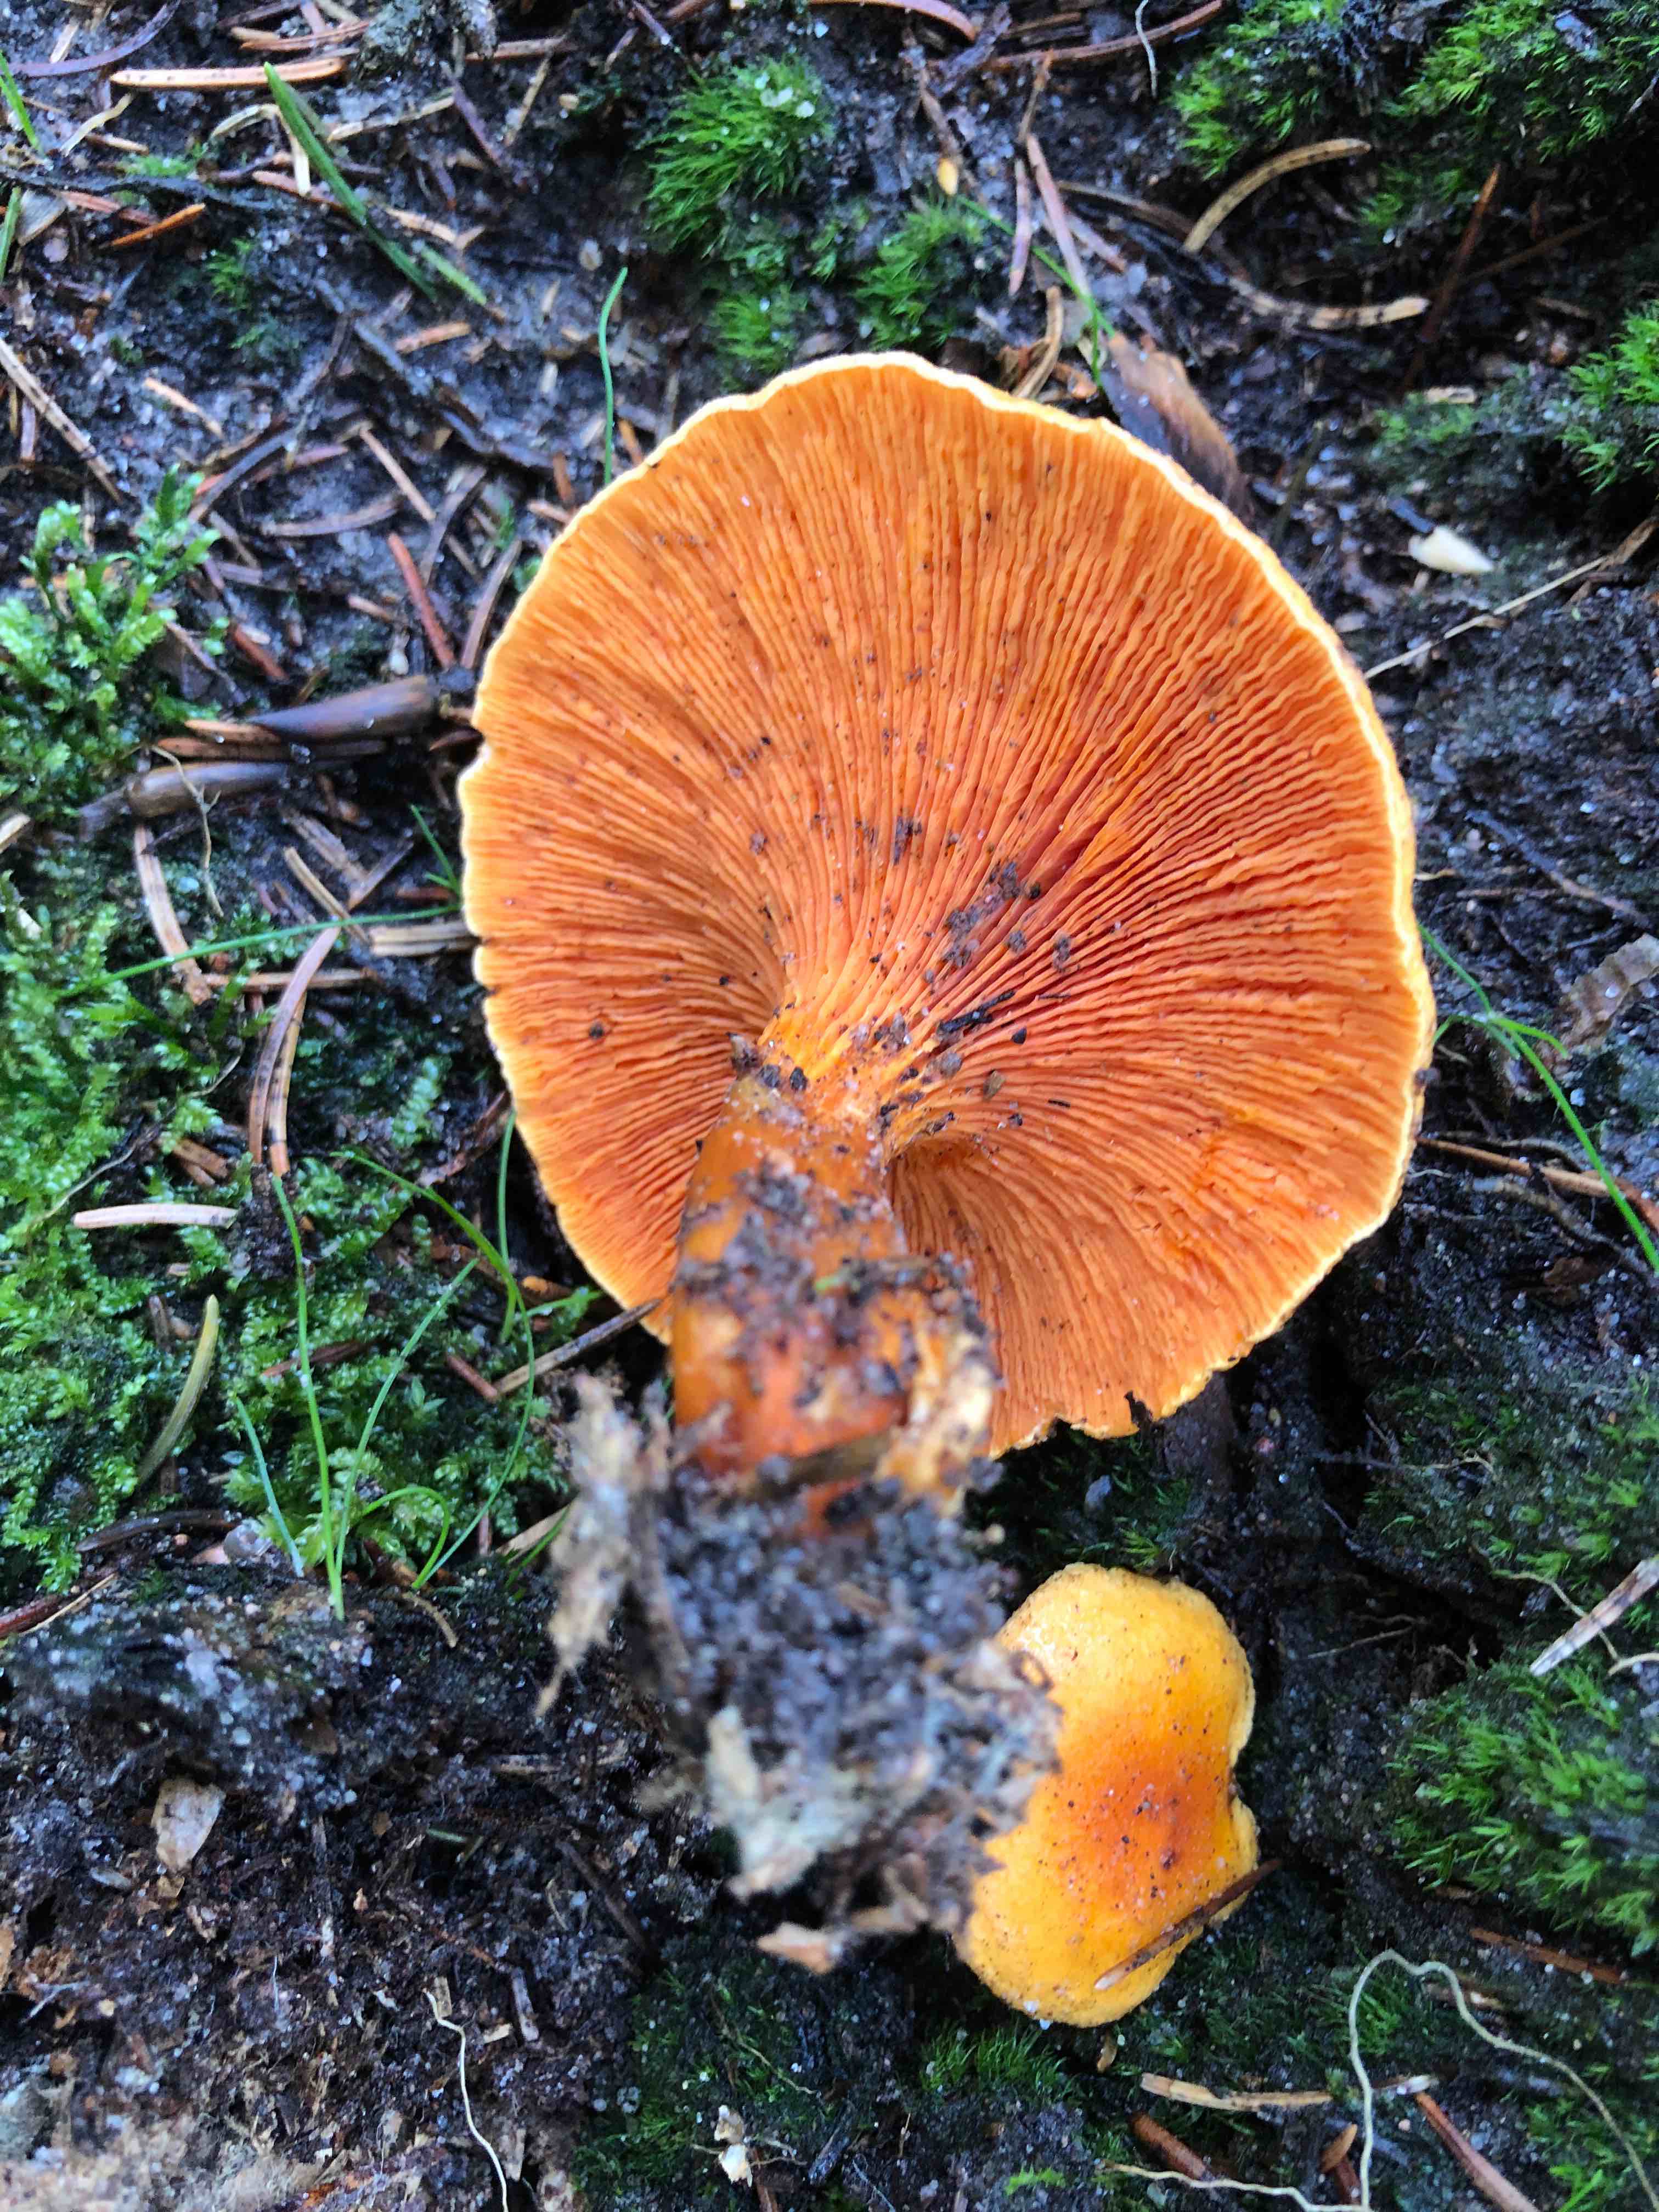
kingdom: Fungi
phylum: Basidiomycota
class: Agaricomycetes
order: Boletales
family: Hygrophoropsidaceae
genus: Hygrophoropsis
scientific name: Hygrophoropsis aurantiaca
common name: almindelig orangekantarel
